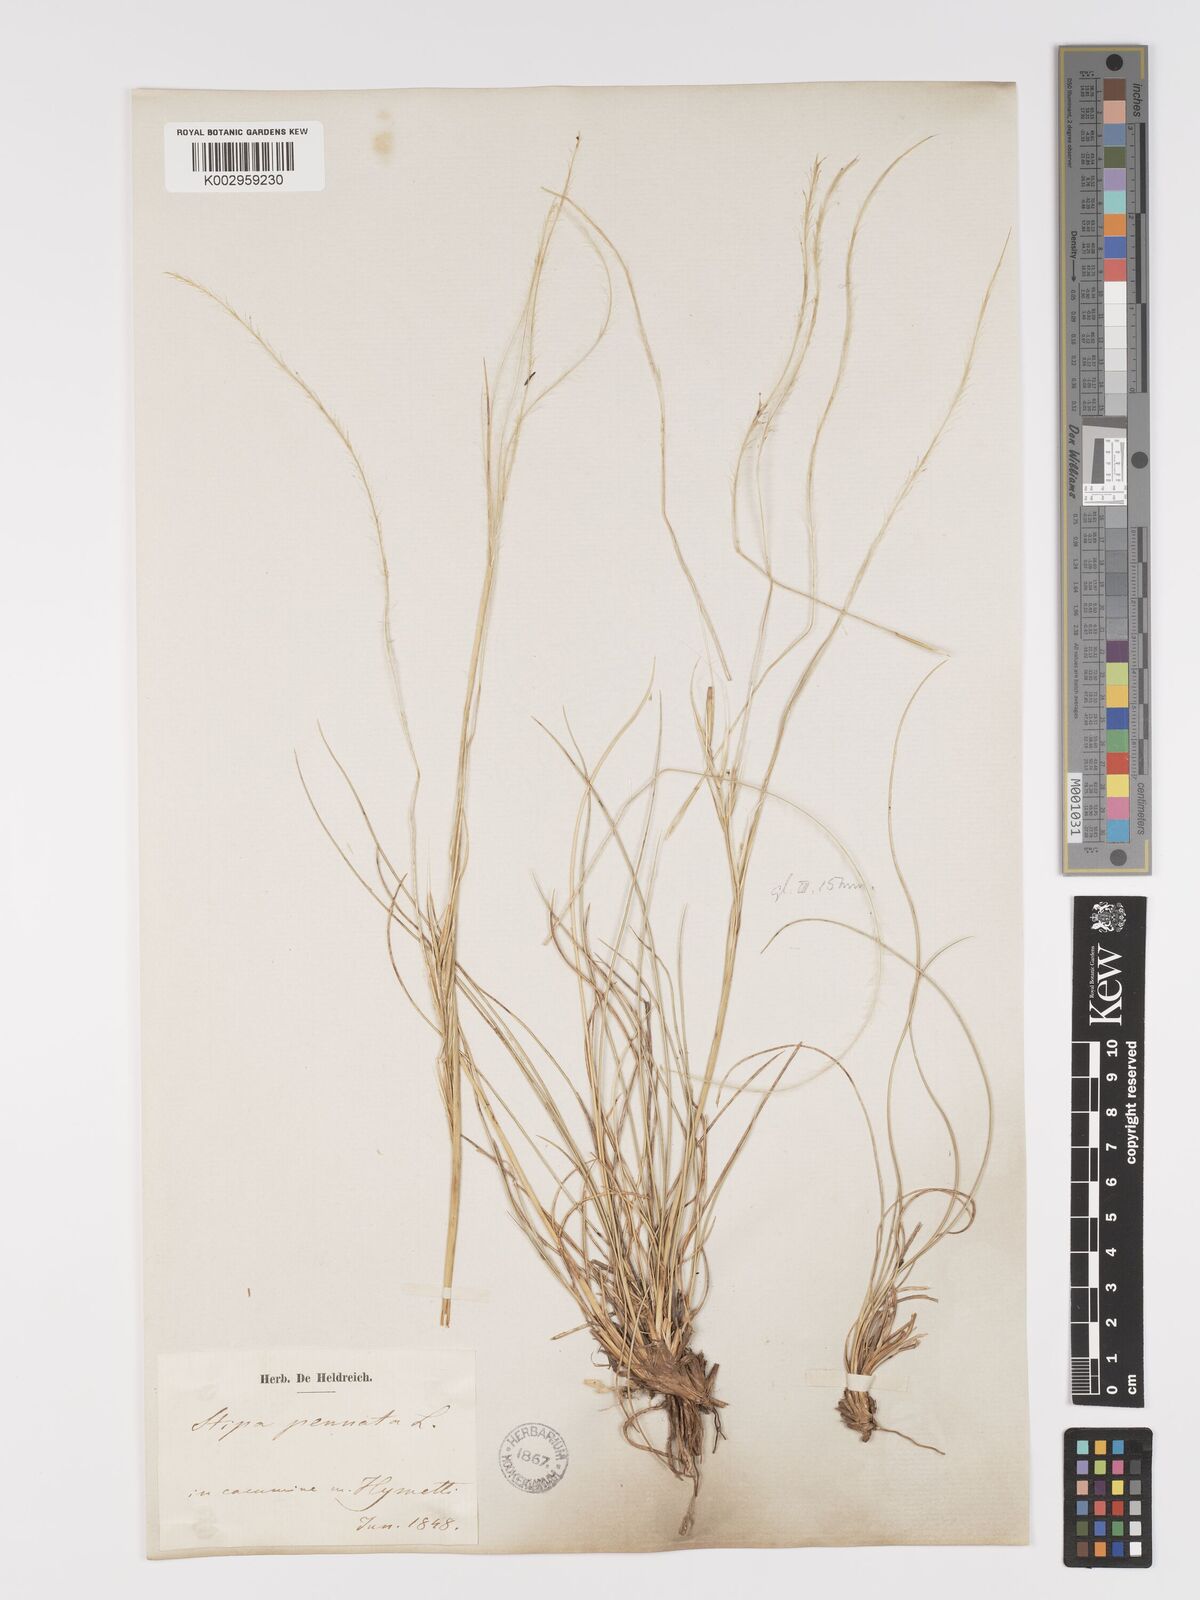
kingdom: Plantae
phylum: Tracheophyta
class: Liliopsida
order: Poales
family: Poaceae
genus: Stipa
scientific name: Stipa pennata
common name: European feather grass
